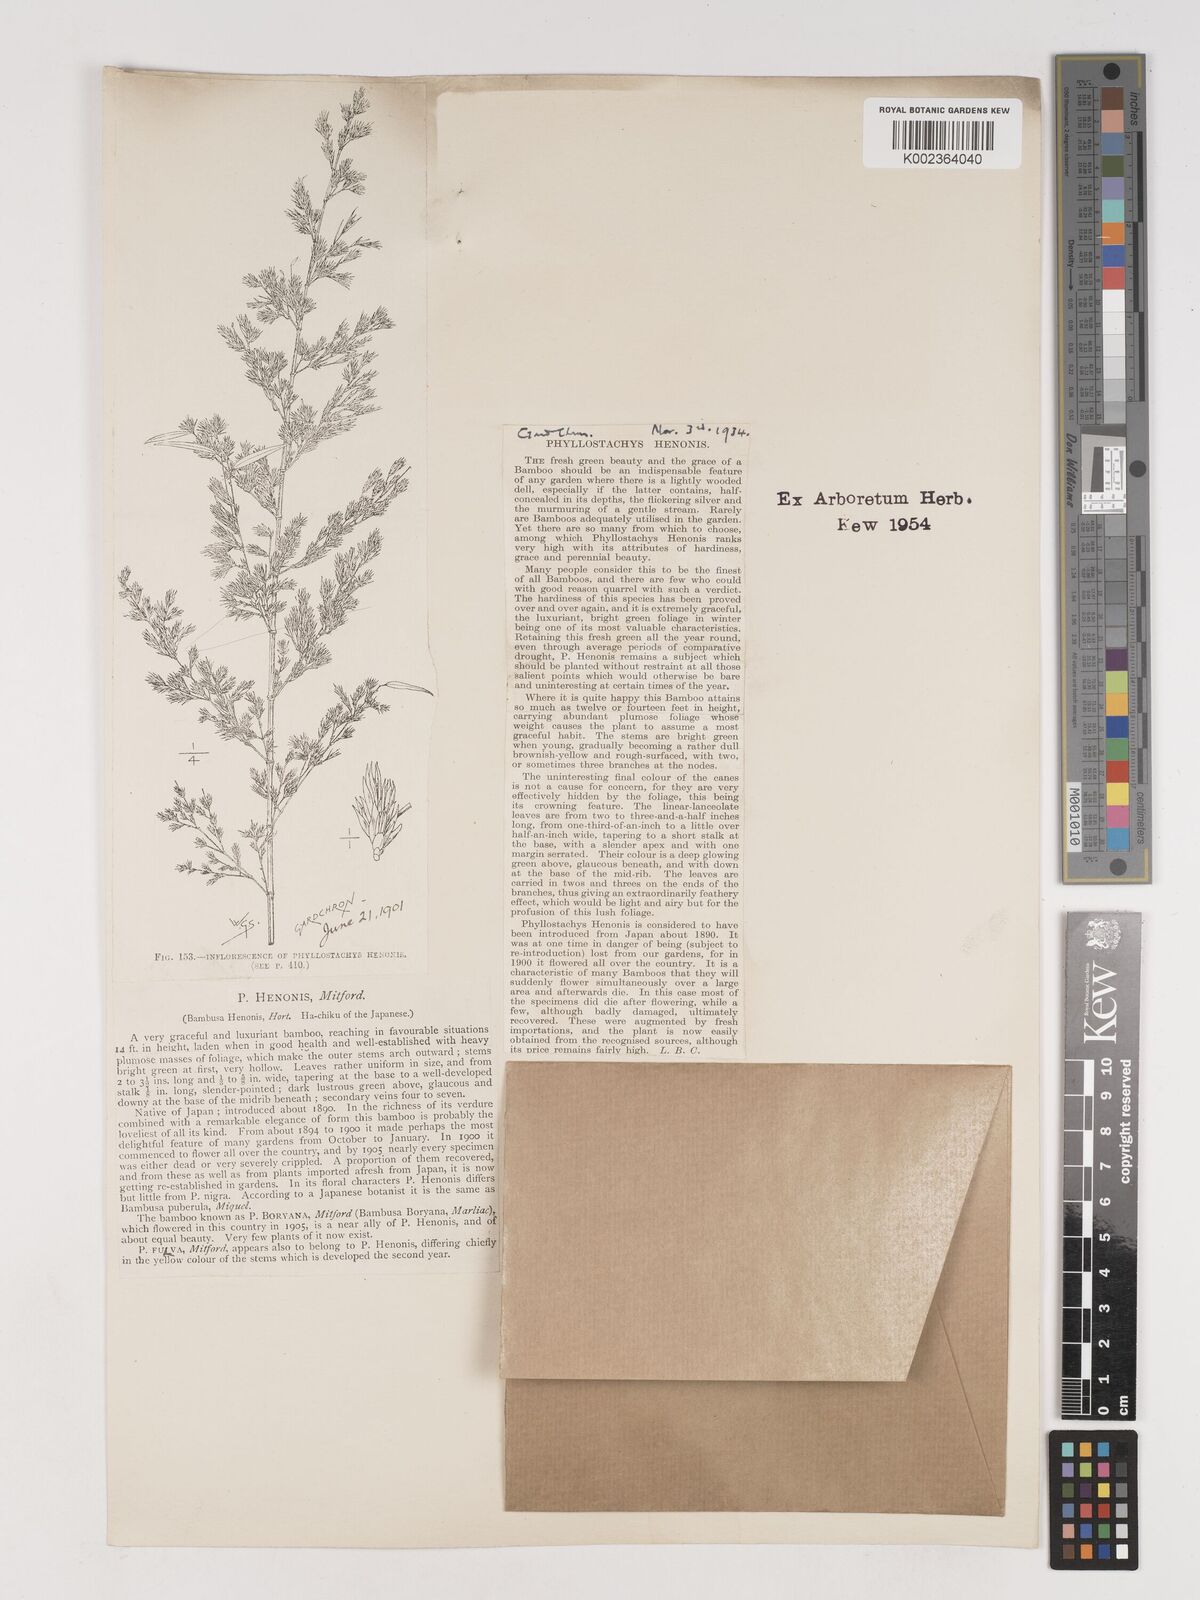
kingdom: Plantae
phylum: Tracheophyta
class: Liliopsida
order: Poales
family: Poaceae
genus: Phyllostachys
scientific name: Phyllostachys nigra
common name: Black bamboo
